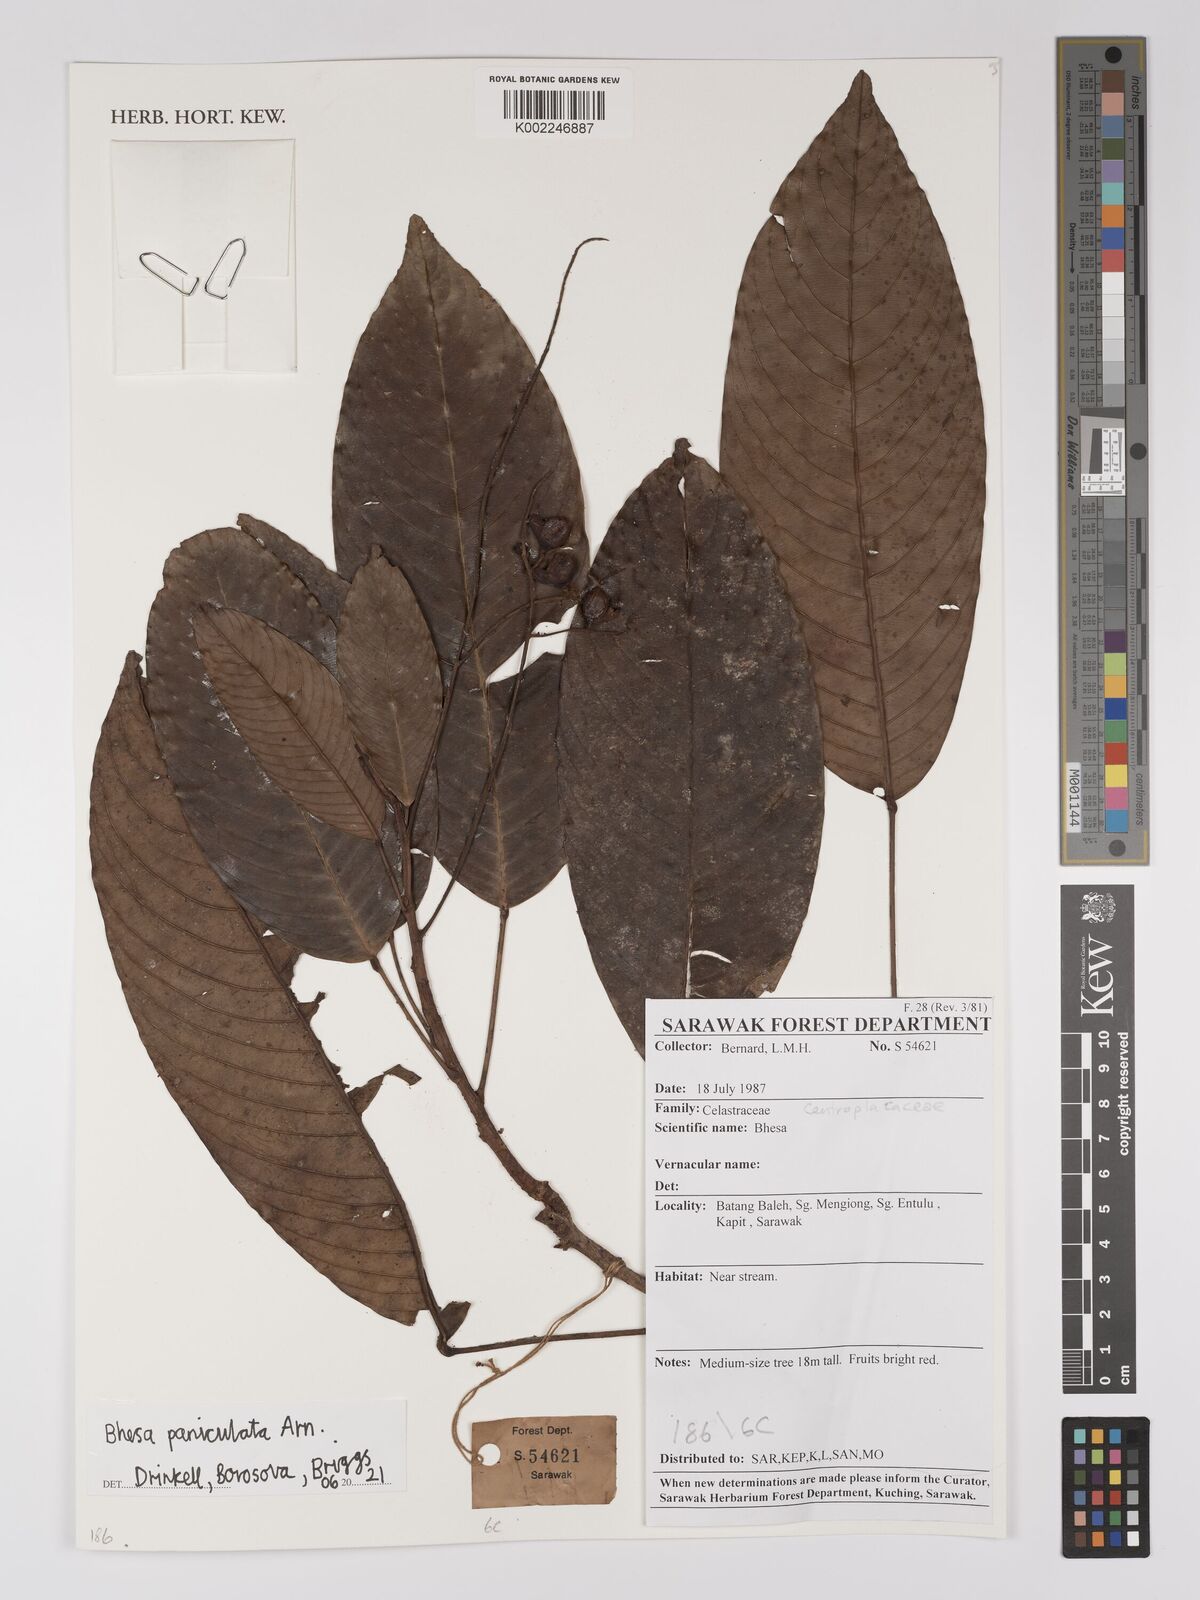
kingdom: Plantae
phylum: Tracheophyta
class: Magnoliopsida
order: Malpighiales
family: Centroplacaceae
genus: Bhesa
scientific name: Bhesa paniculata
